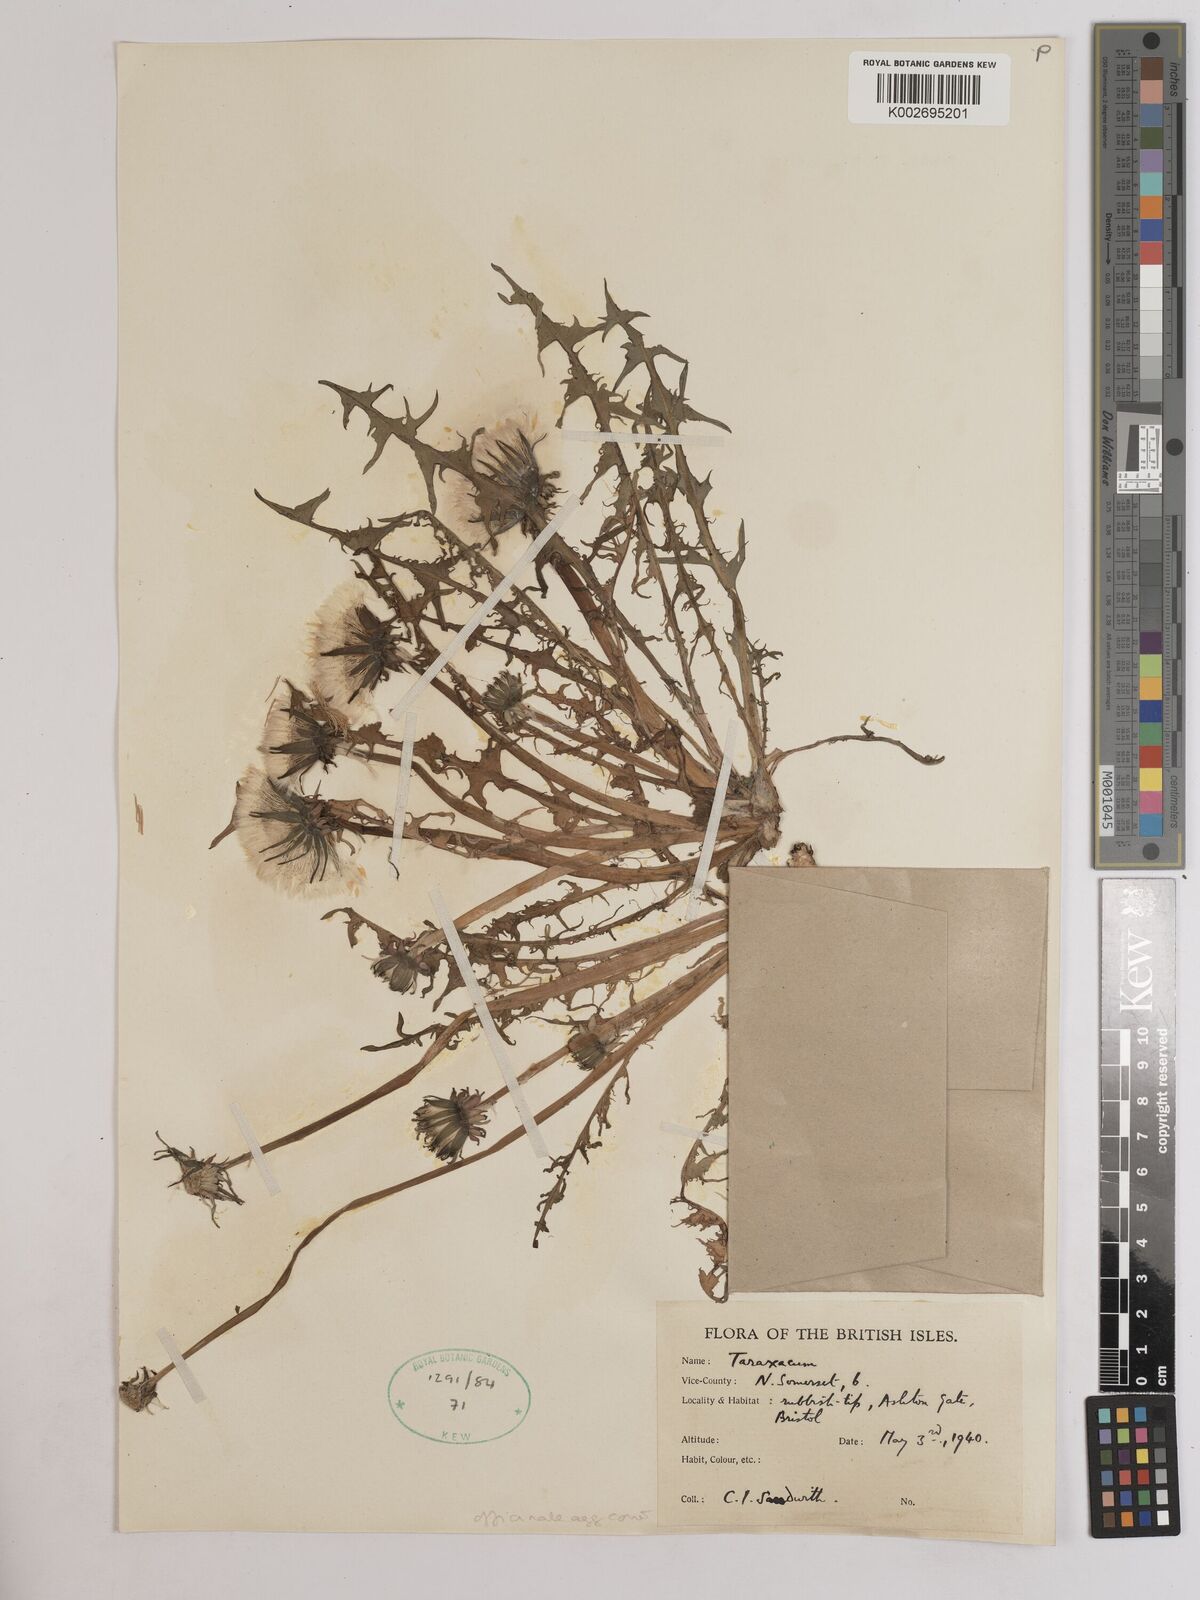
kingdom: Plantae
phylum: Tracheophyta
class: Magnoliopsida
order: Asterales
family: Asteraceae
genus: Taraxacum
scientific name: Taraxacum officinale
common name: Common dandelion
